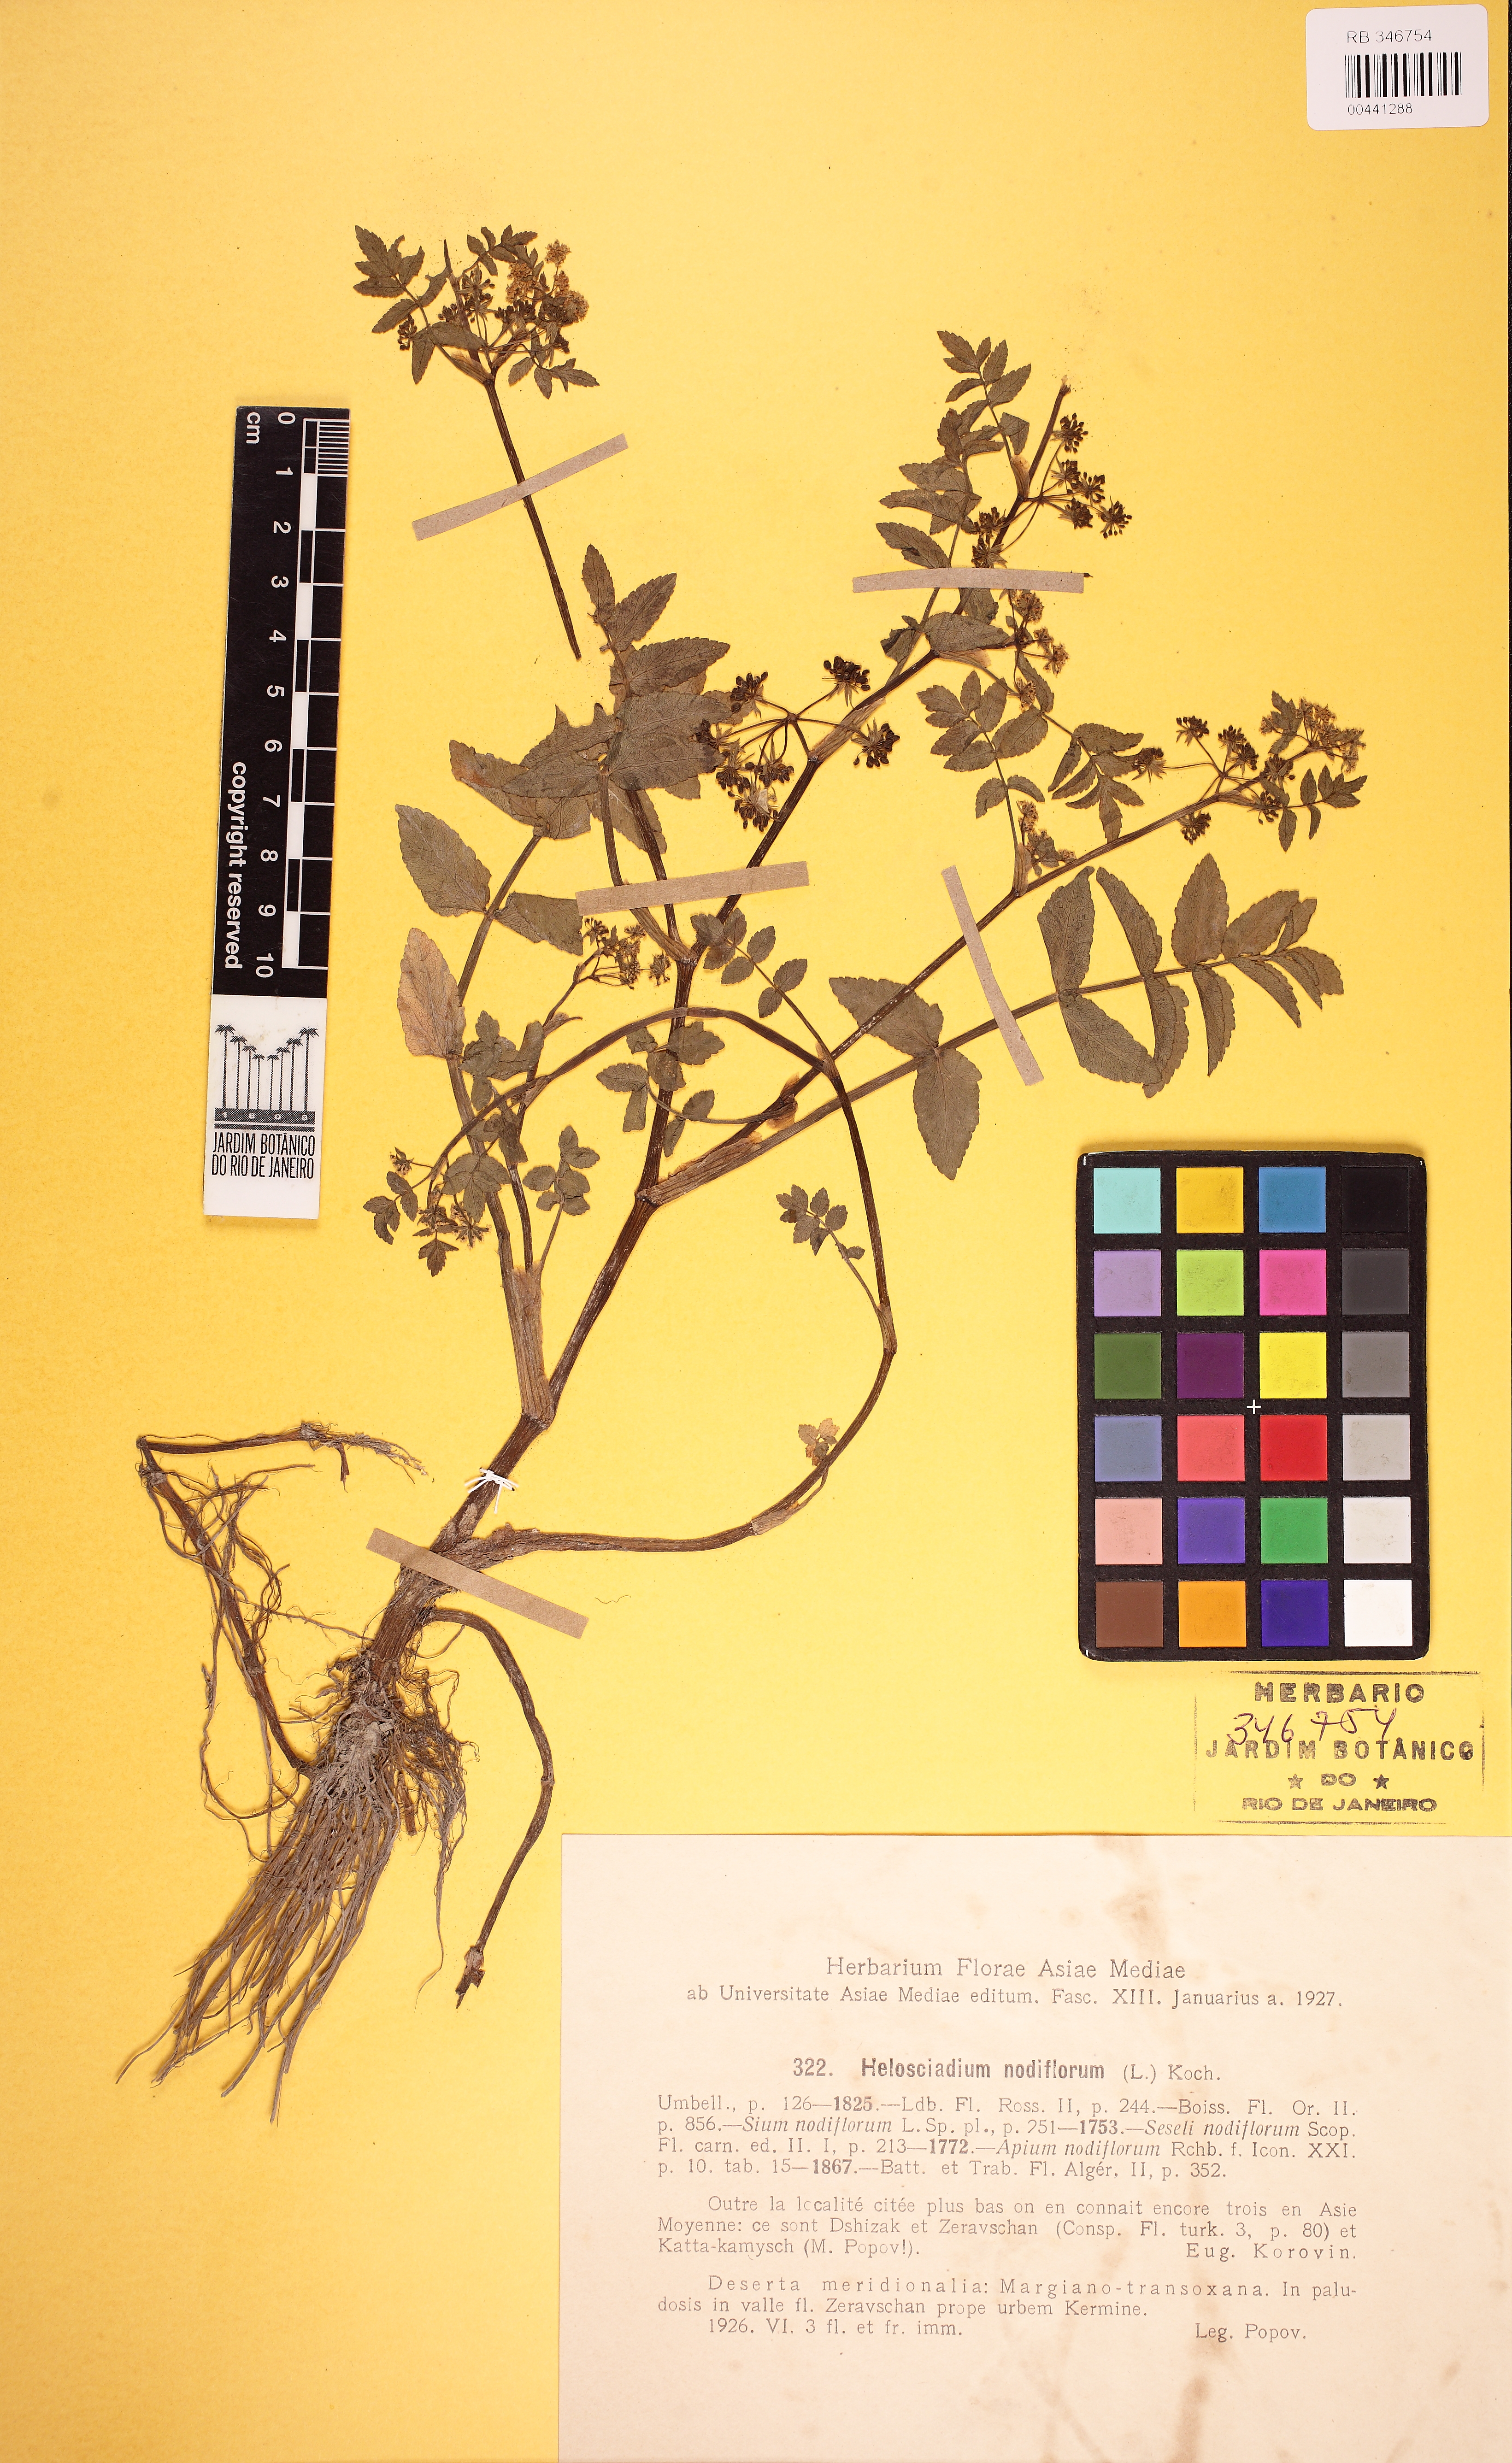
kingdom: Plantae
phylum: Tracheophyta
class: Magnoliopsida
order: Apiales
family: Apiaceae
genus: Helosciadium
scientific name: Helosciadium nodiflorum
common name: Fool's-watercress
